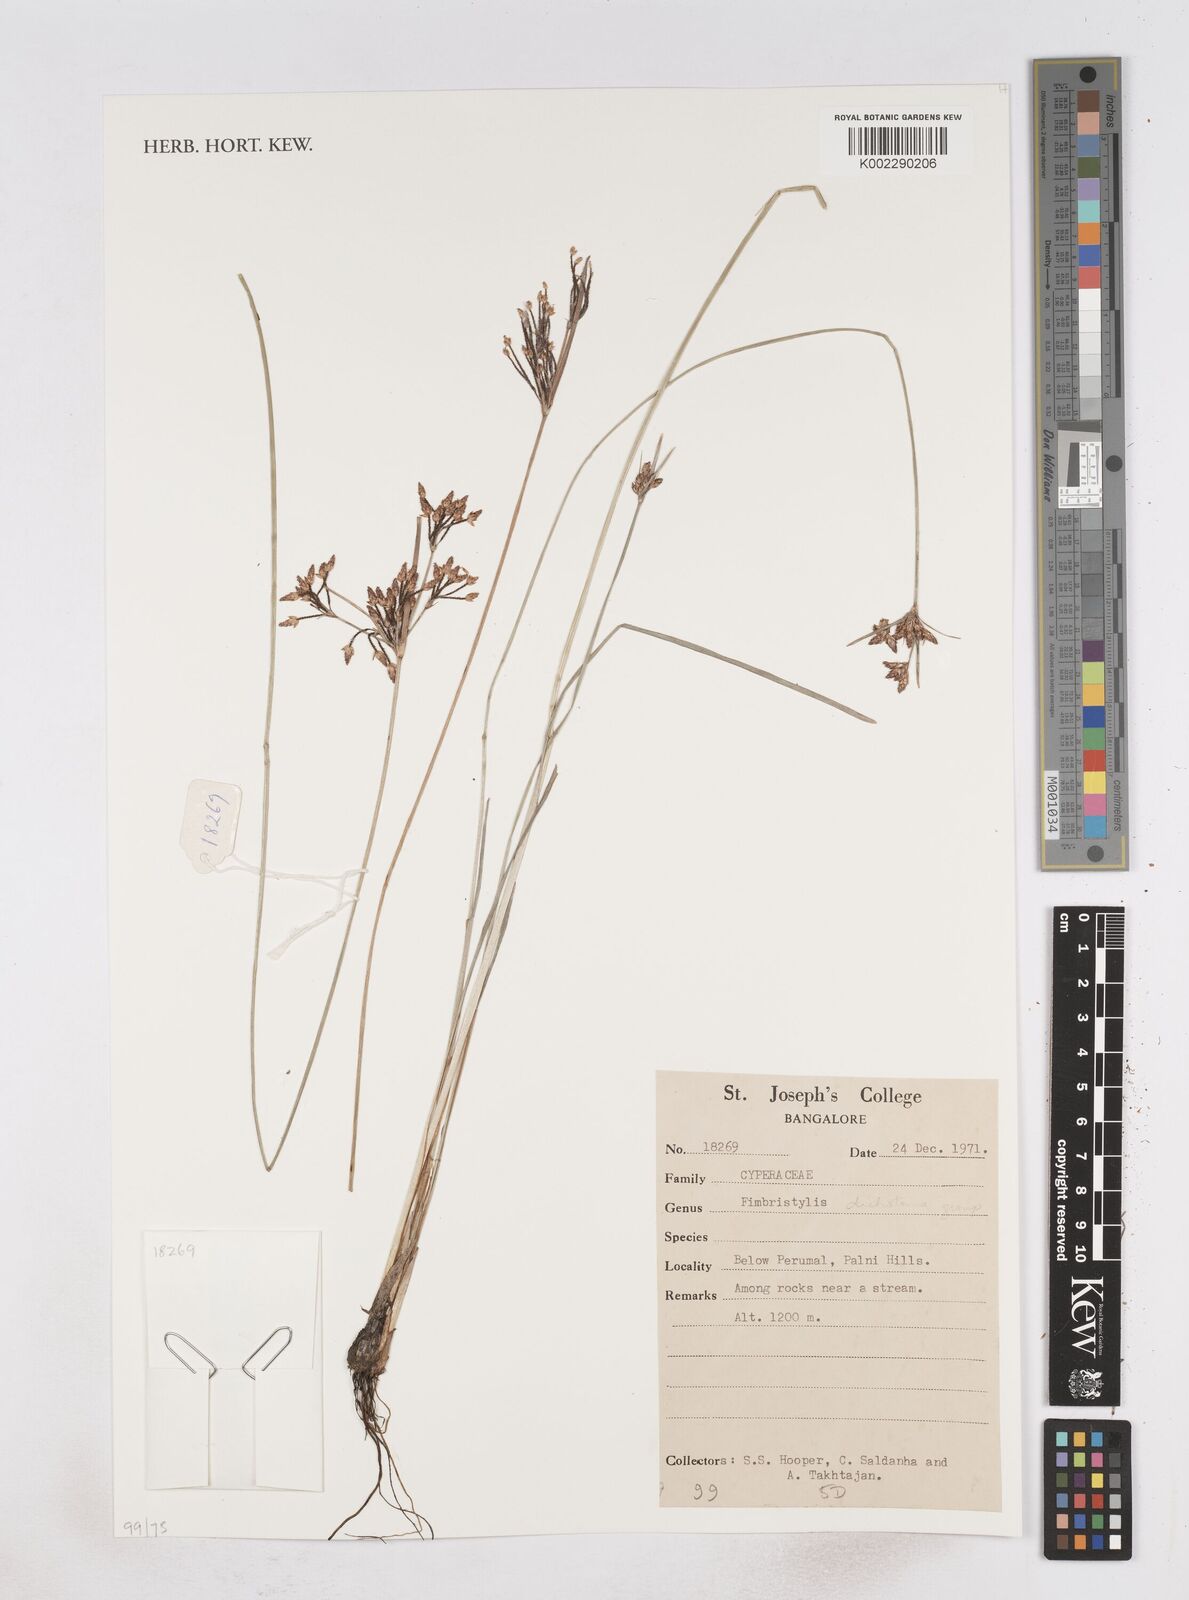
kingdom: Plantae
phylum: Tracheophyta
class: Liliopsida
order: Poales
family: Cyperaceae
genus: Fimbristylis
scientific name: Fimbristylis
